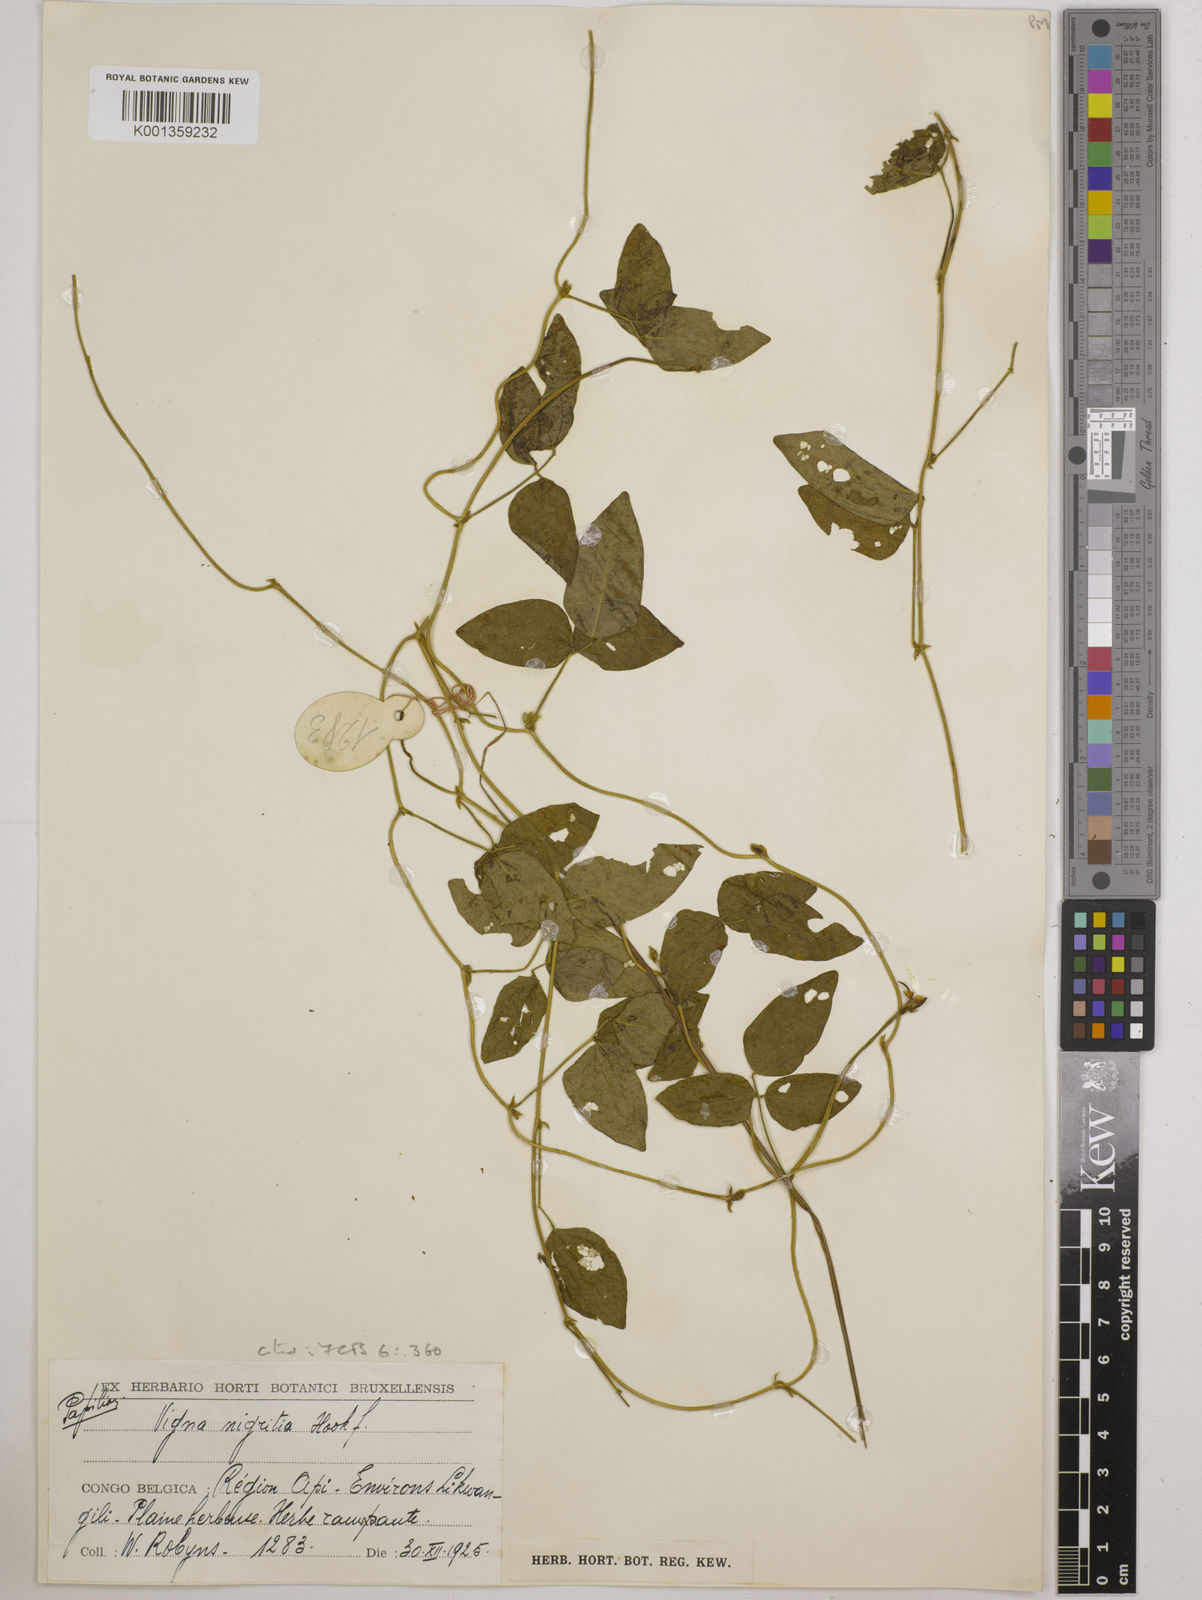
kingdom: Plantae
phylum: Tracheophyta
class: Magnoliopsida
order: Fabales
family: Fabaceae
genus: Vigna
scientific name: Vigna nigritia
